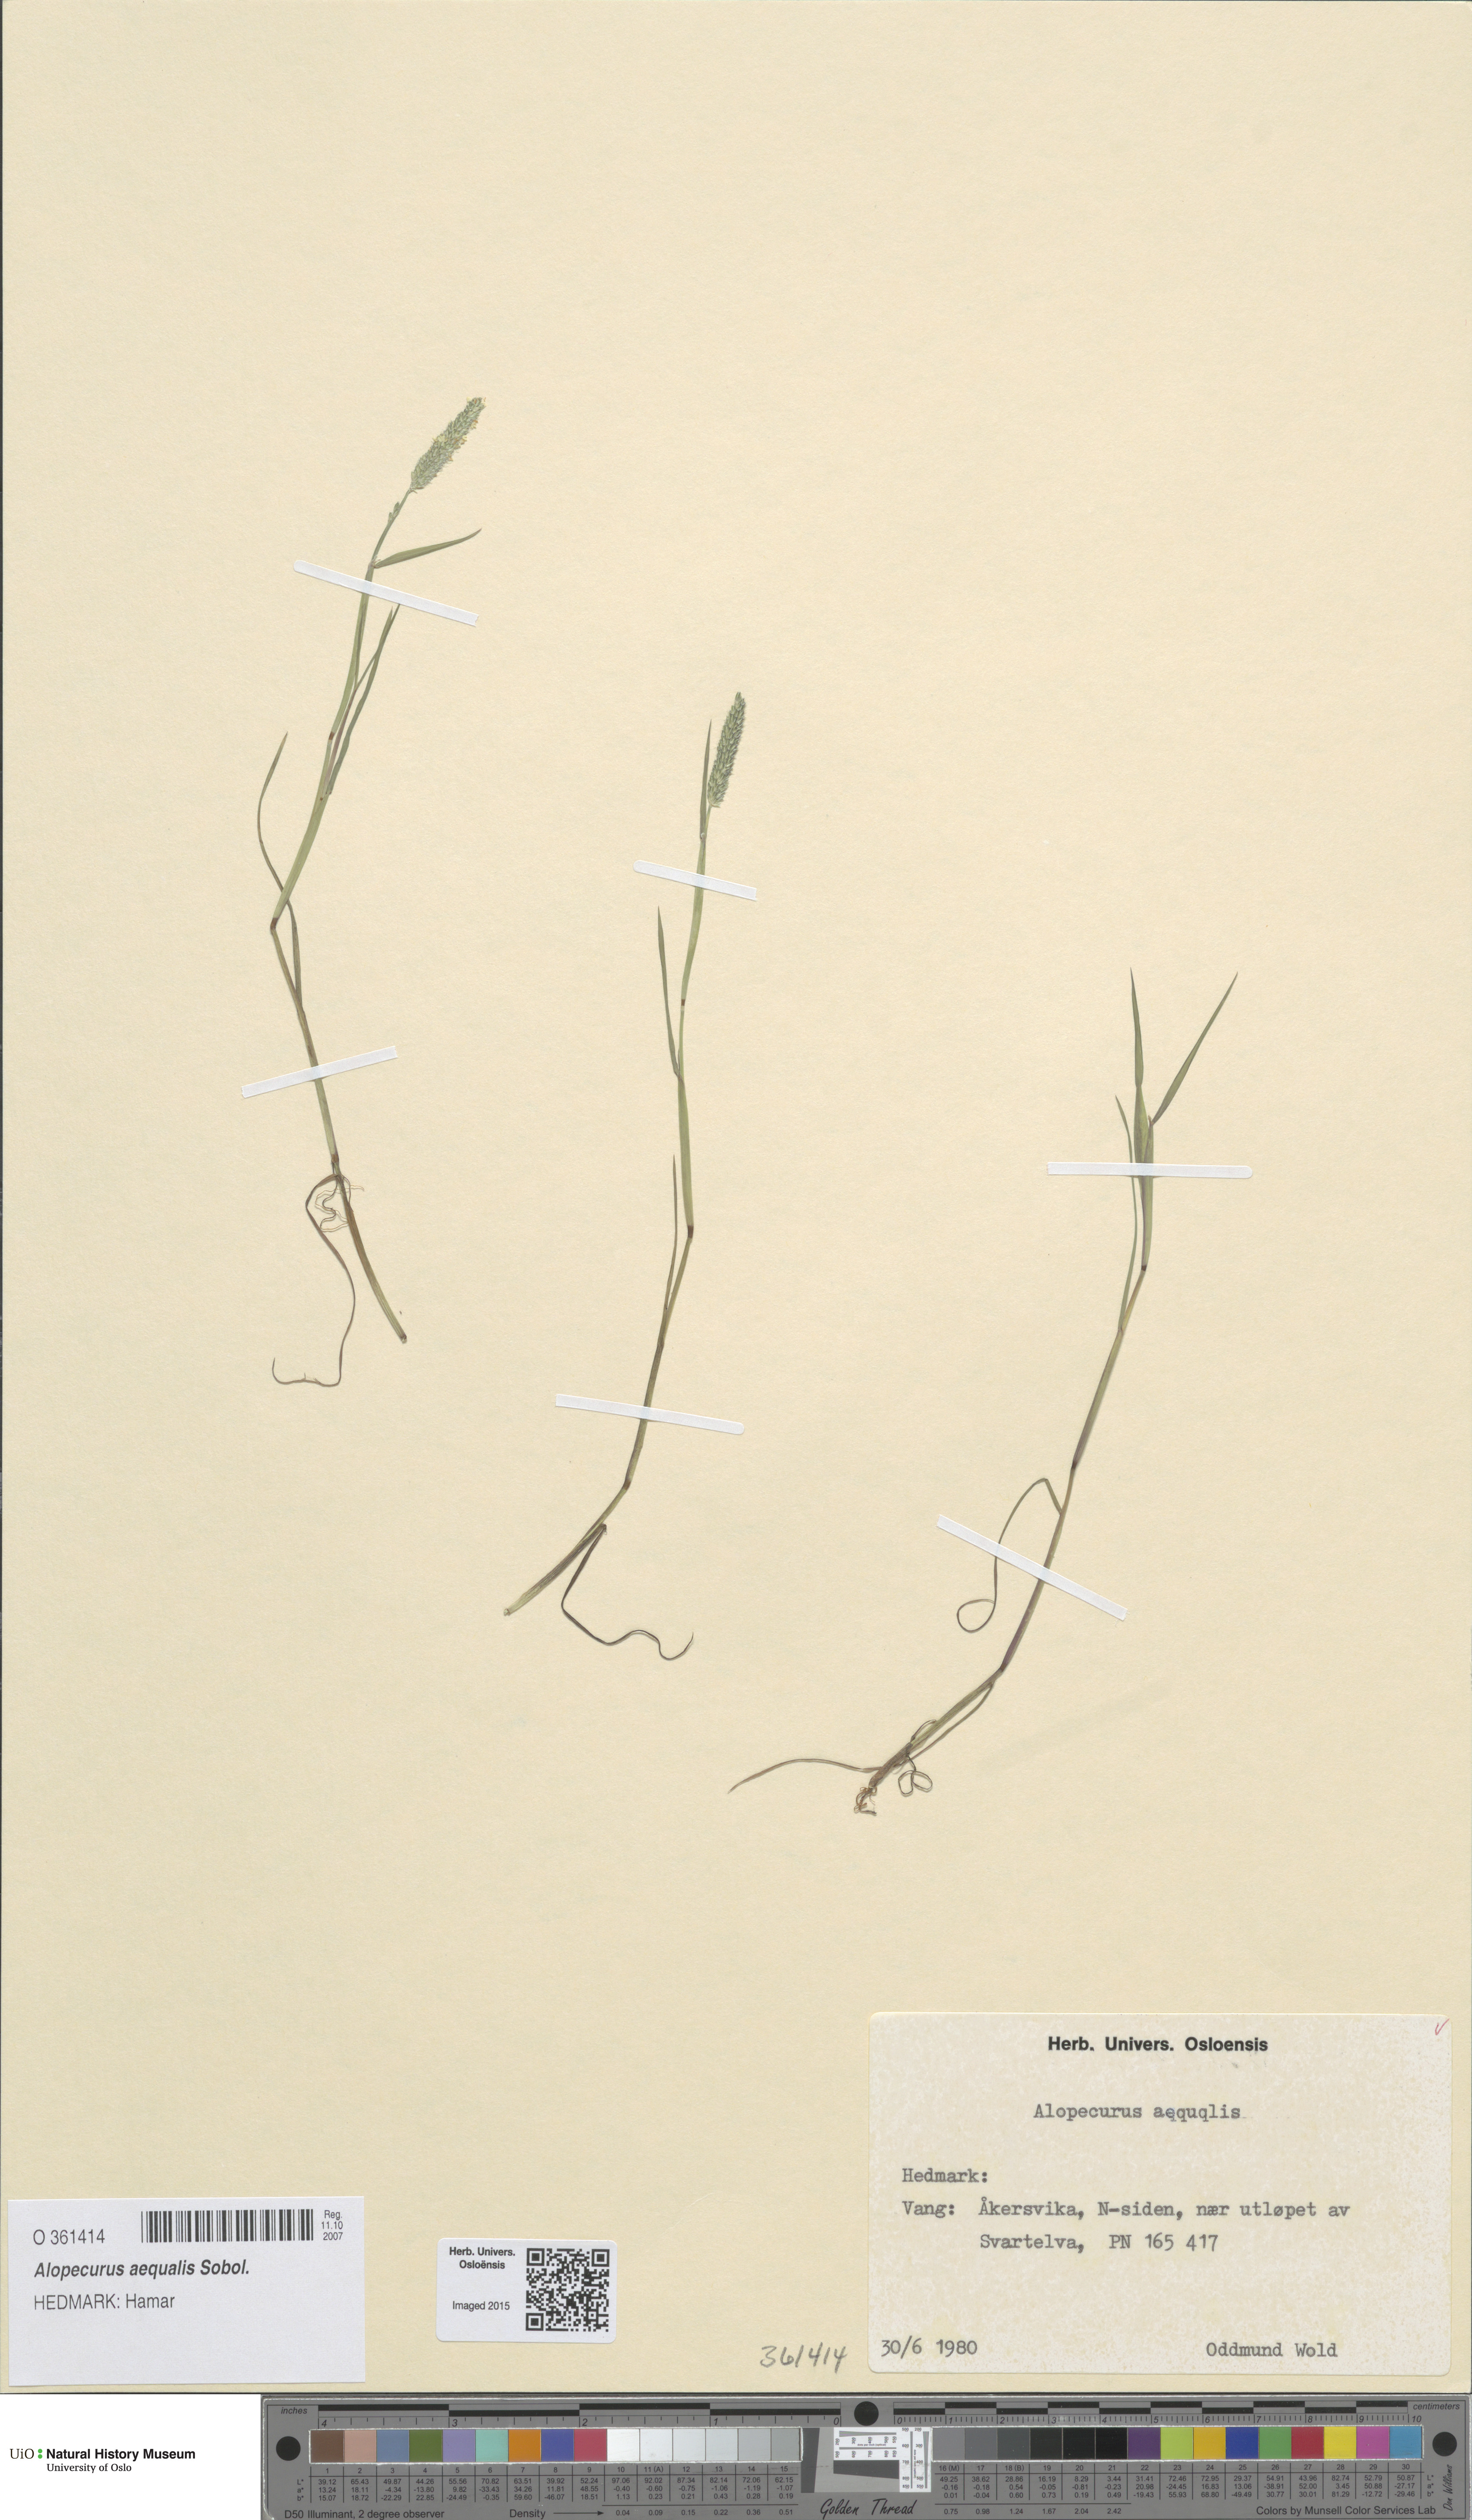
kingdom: Plantae
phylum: Tracheophyta
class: Liliopsida
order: Poales
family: Poaceae
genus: Alopecurus
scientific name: Alopecurus aequalis
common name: Orange foxtail
